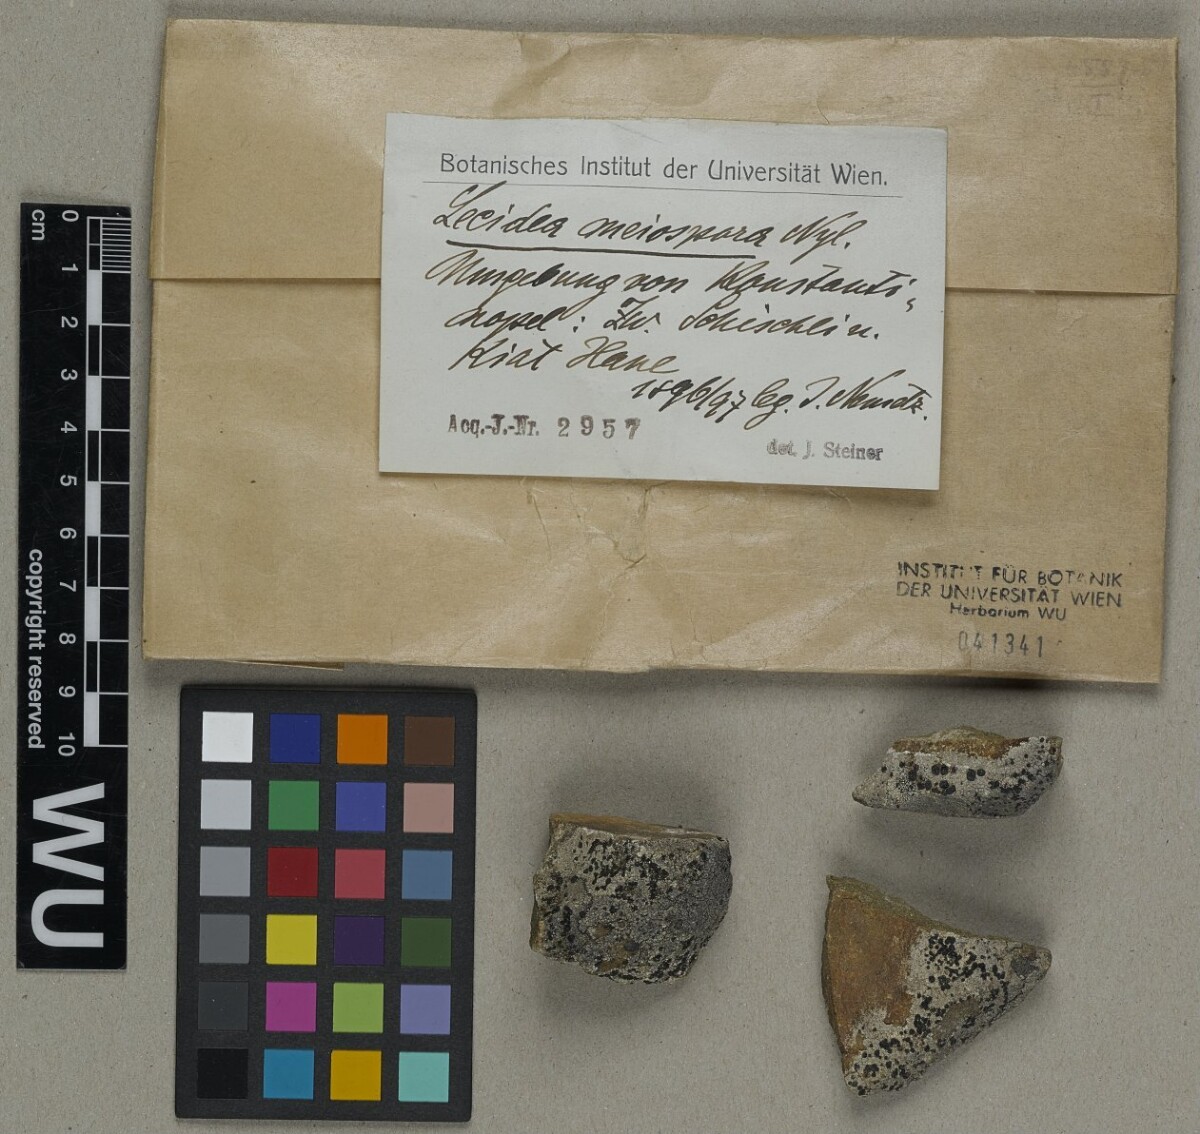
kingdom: Fungi
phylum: Ascomycota
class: Lecanoromycetes
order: Lecideales
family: Lecideaceae
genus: Lecidea
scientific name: Lecidea meiospora
